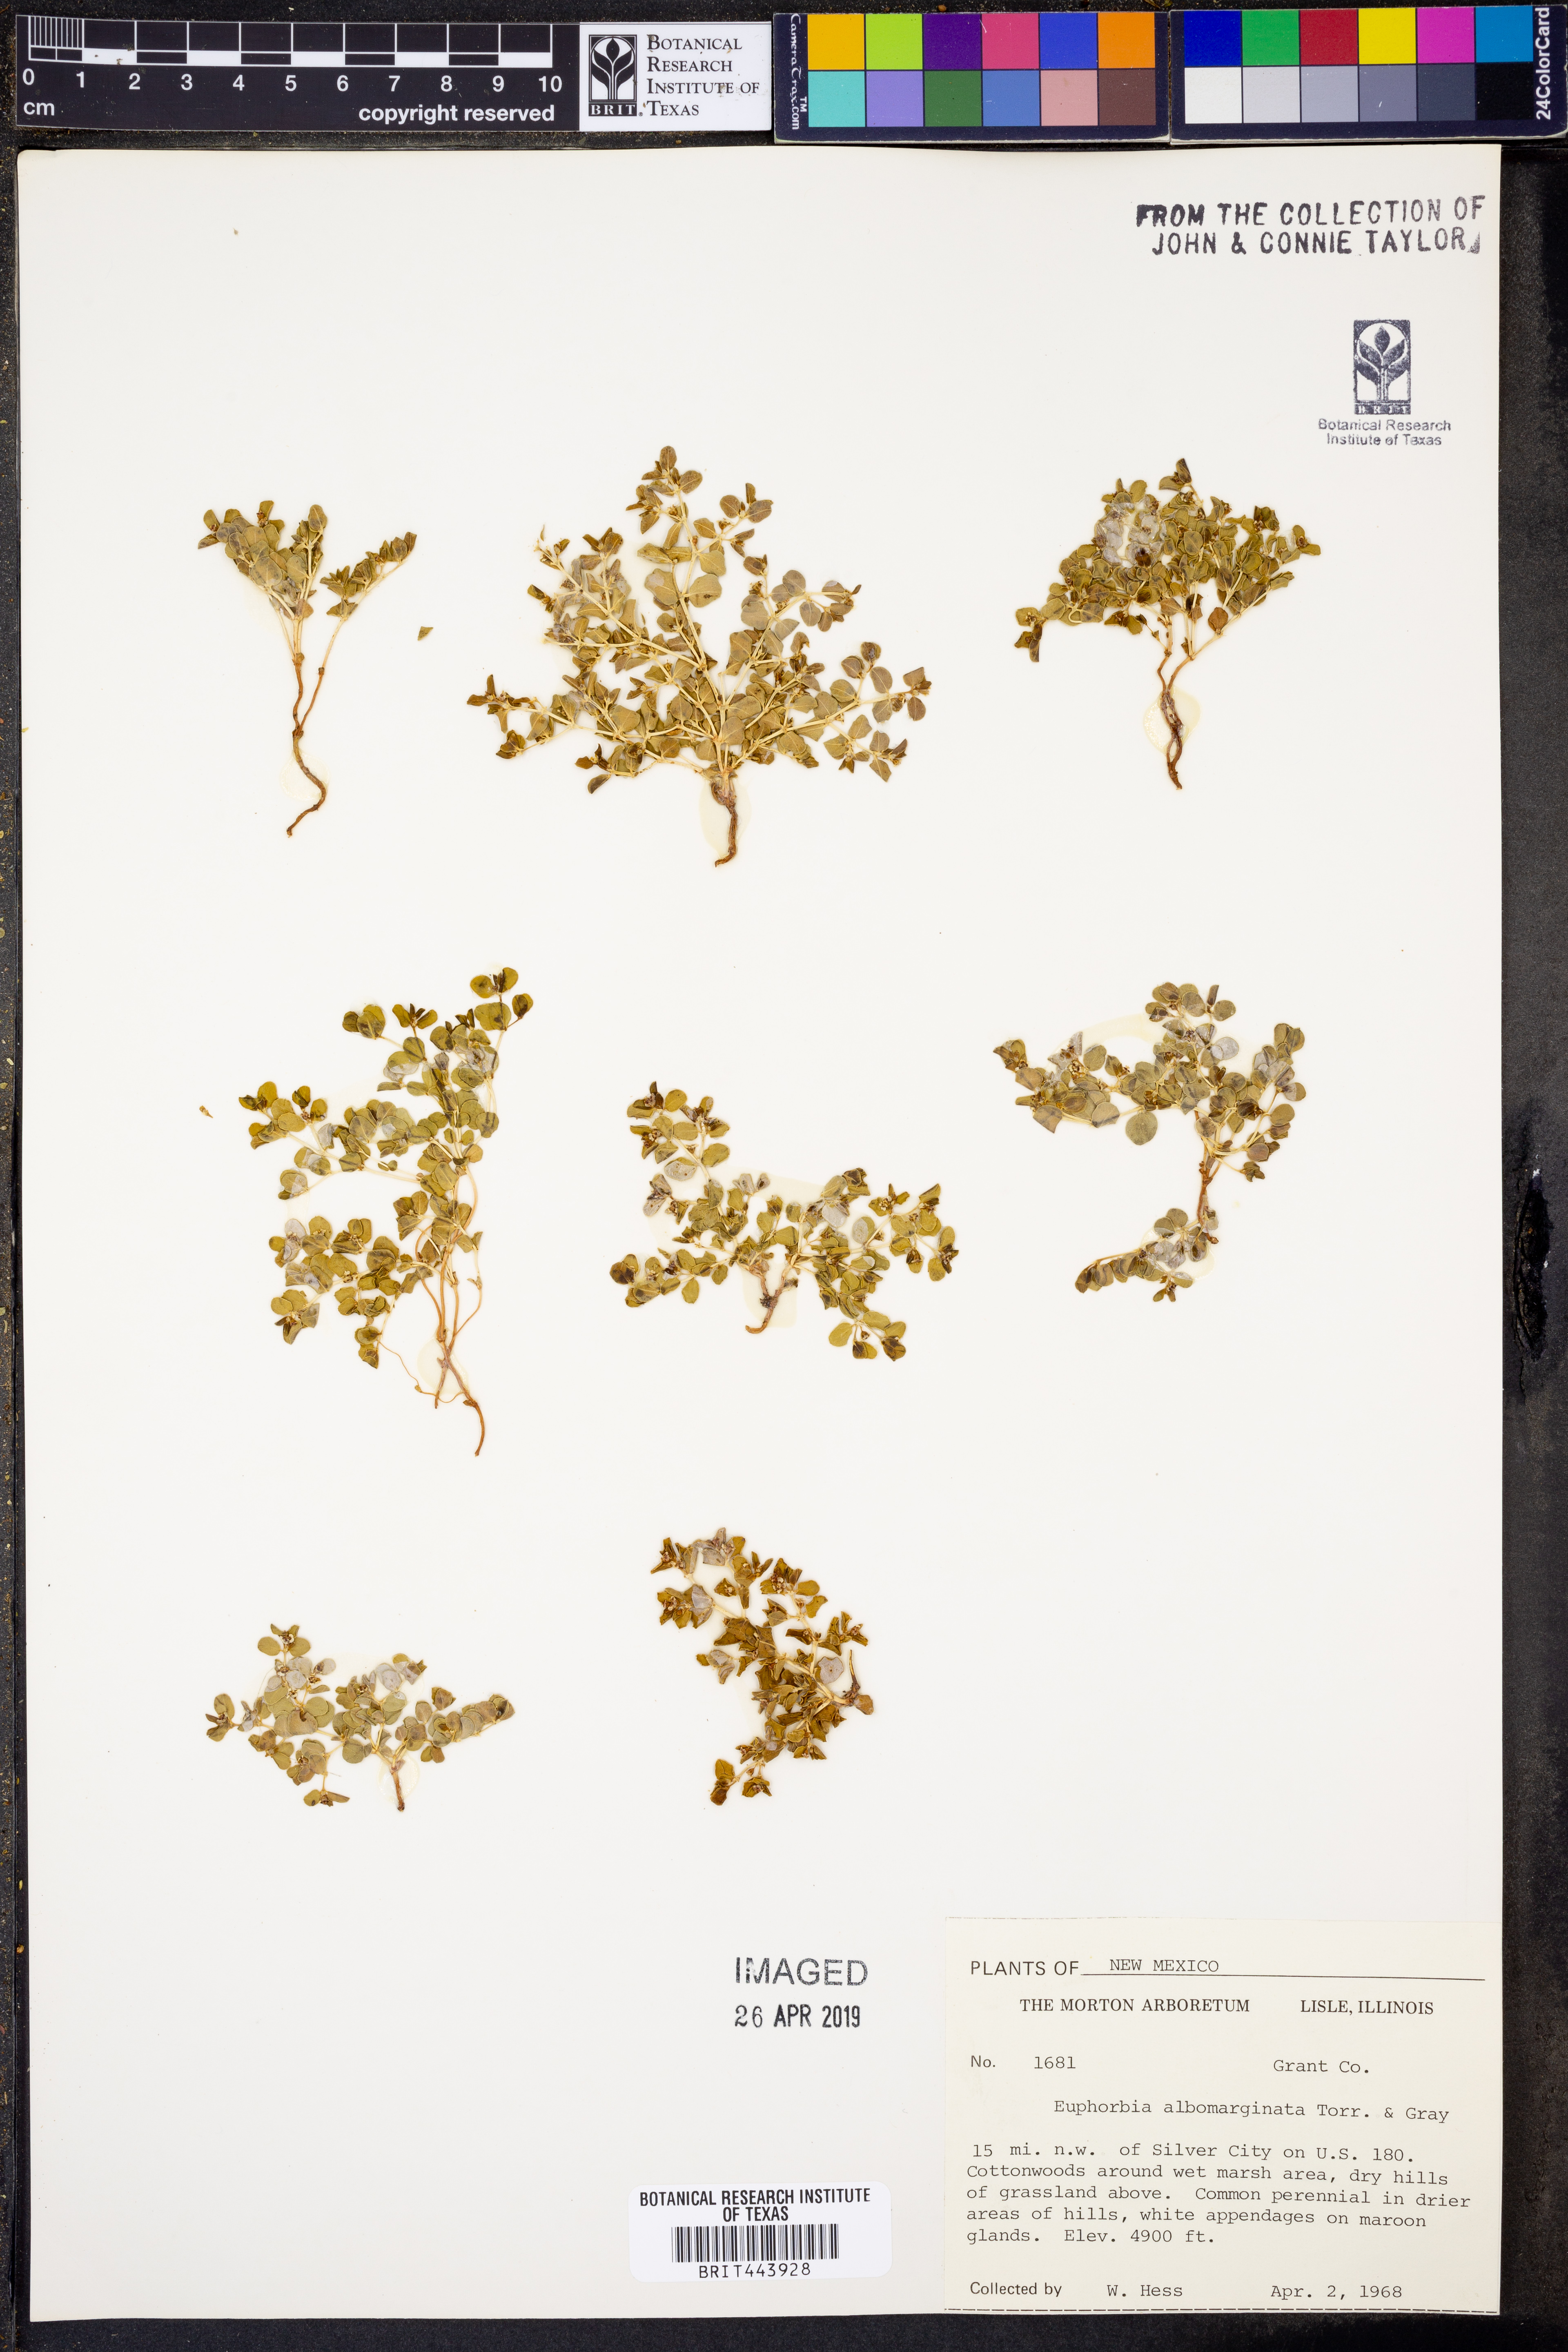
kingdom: Plantae
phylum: Tracheophyta
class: Magnoliopsida
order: Malpighiales
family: Euphorbiaceae
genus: Euphorbia
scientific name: Euphorbia albomarginata
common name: Whitemargin sandmat
